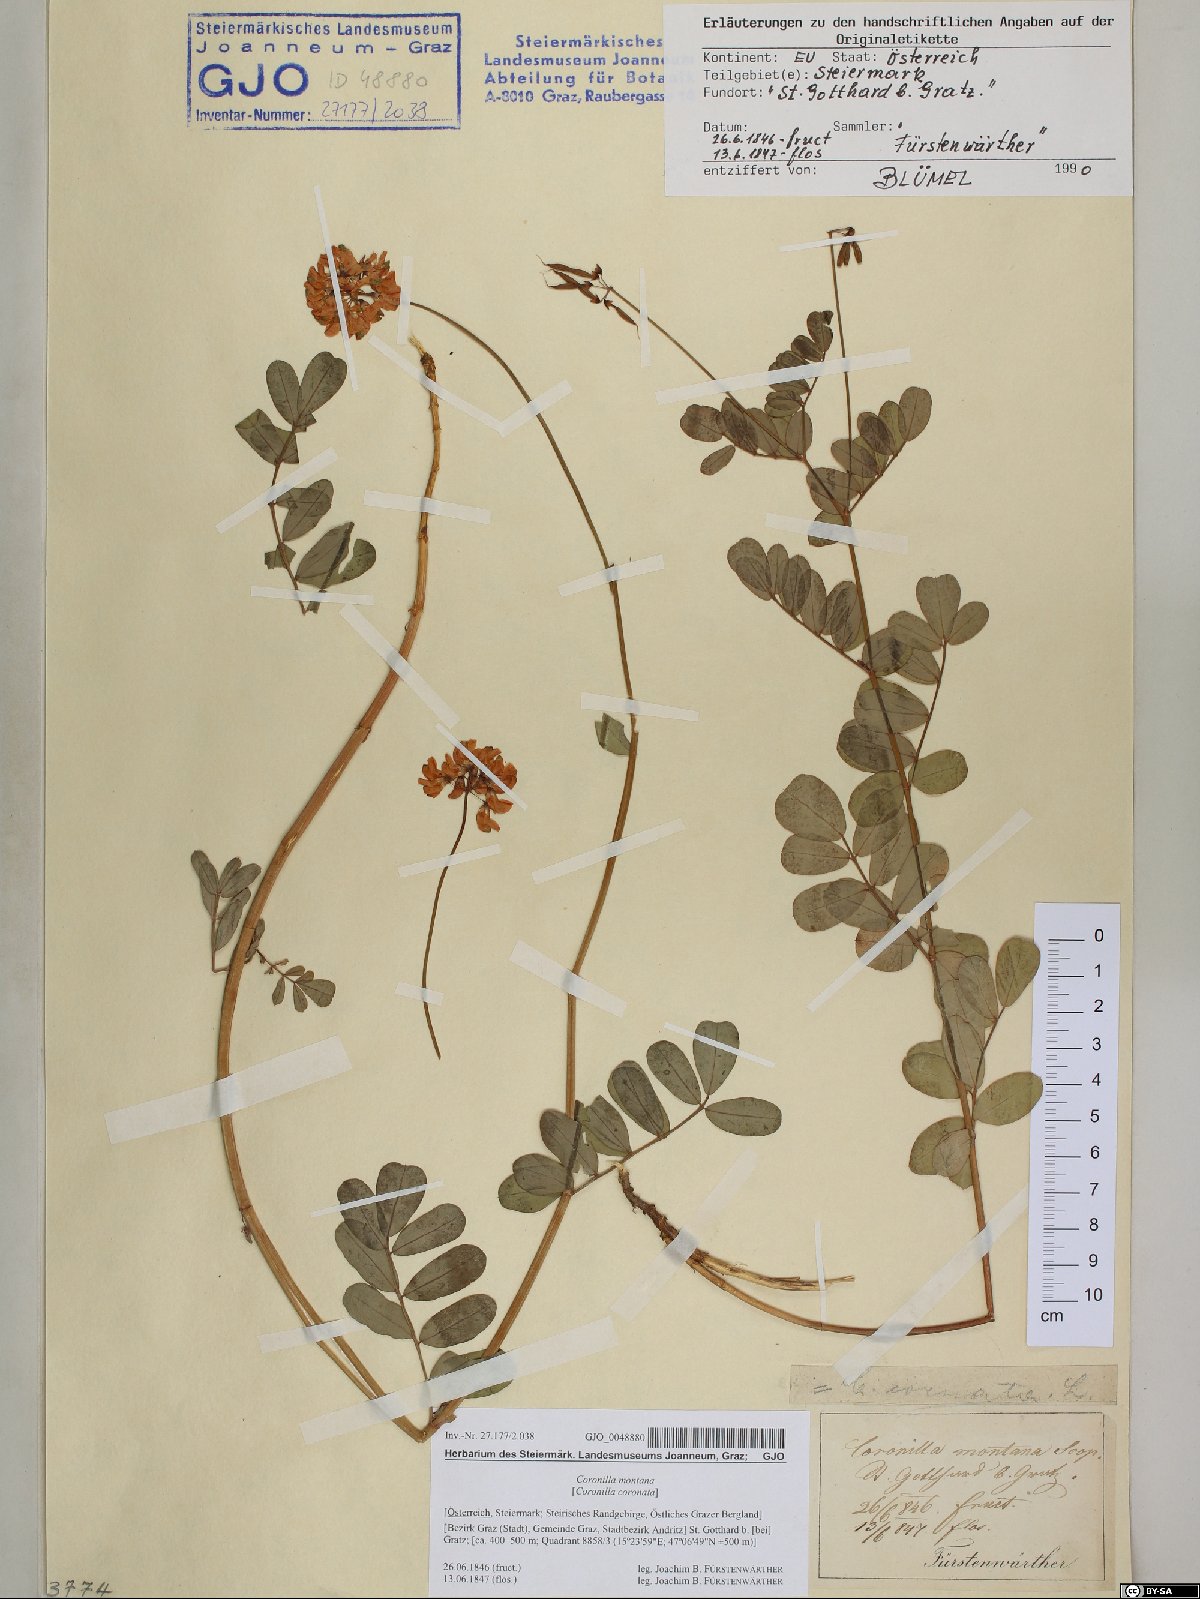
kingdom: Plantae
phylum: Tracheophyta
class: Magnoliopsida
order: Fabales
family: Fabaceae
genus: Coronilla
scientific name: Coronilla coronata
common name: Scorpion-vetch
